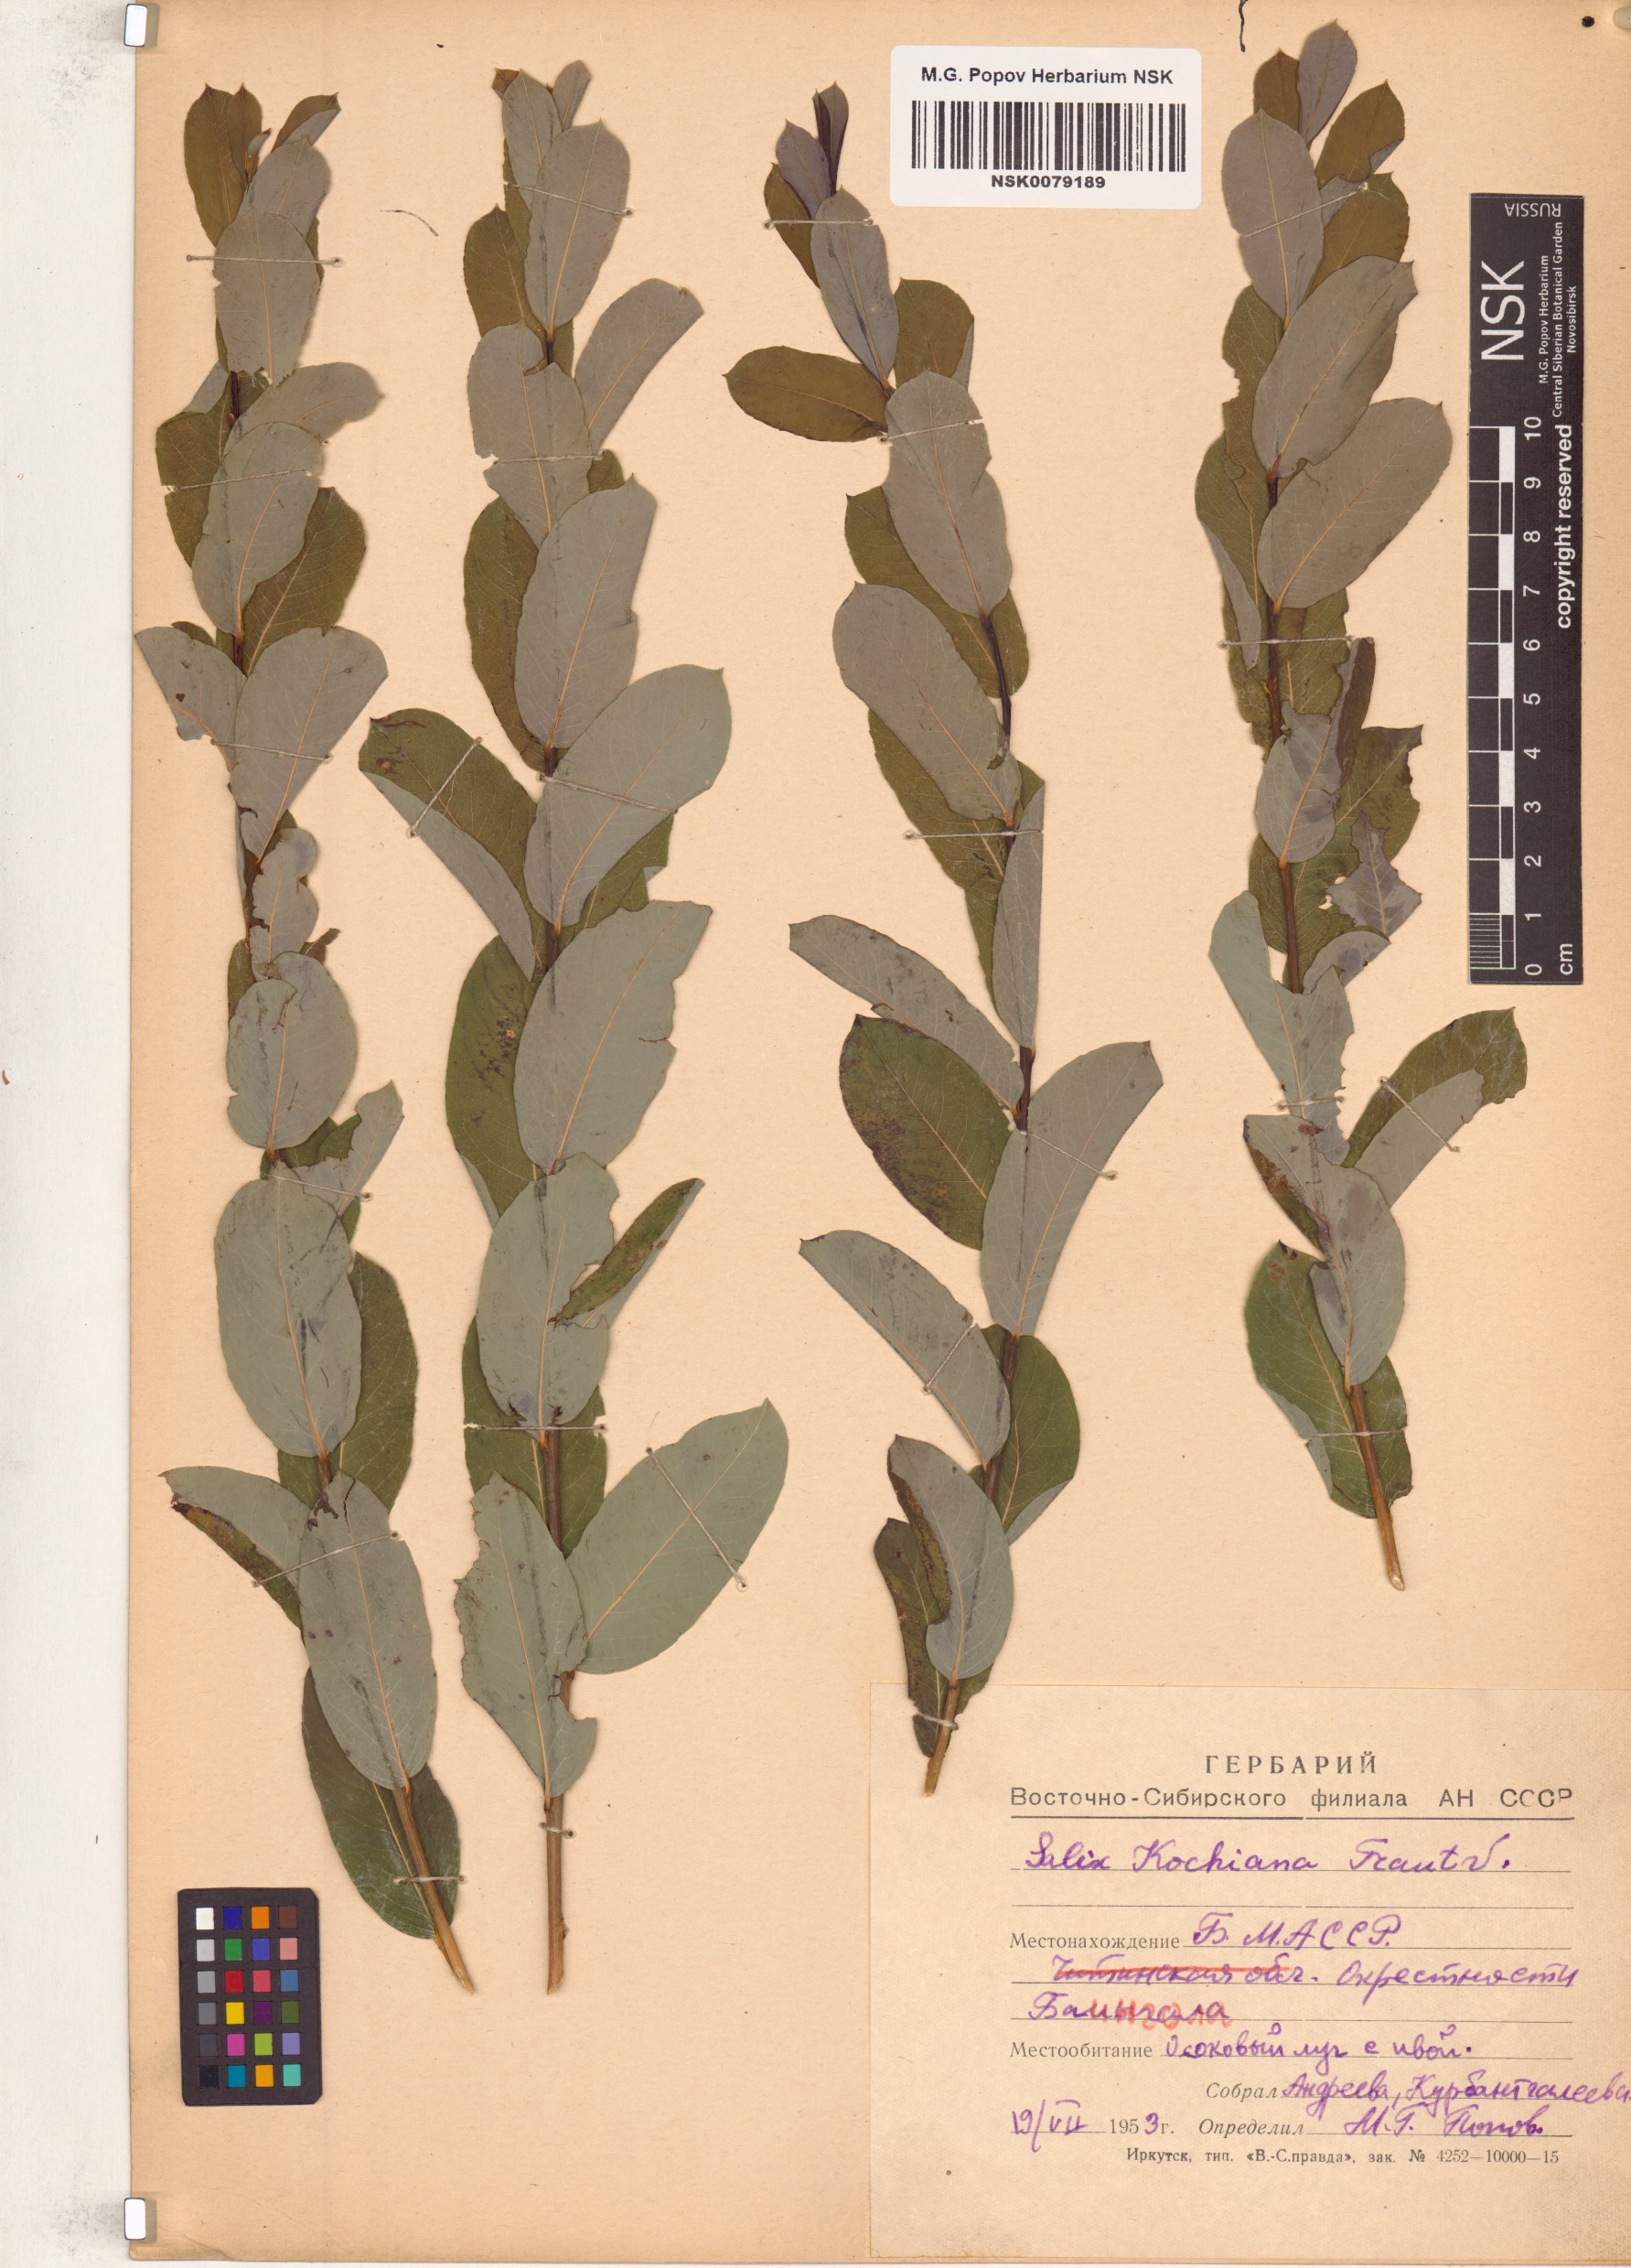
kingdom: Plantae
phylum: Tracheophyta
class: Magnoliopsida
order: Malpighiales
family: Salicaceae
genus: Salix
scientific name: Salix kochiana
